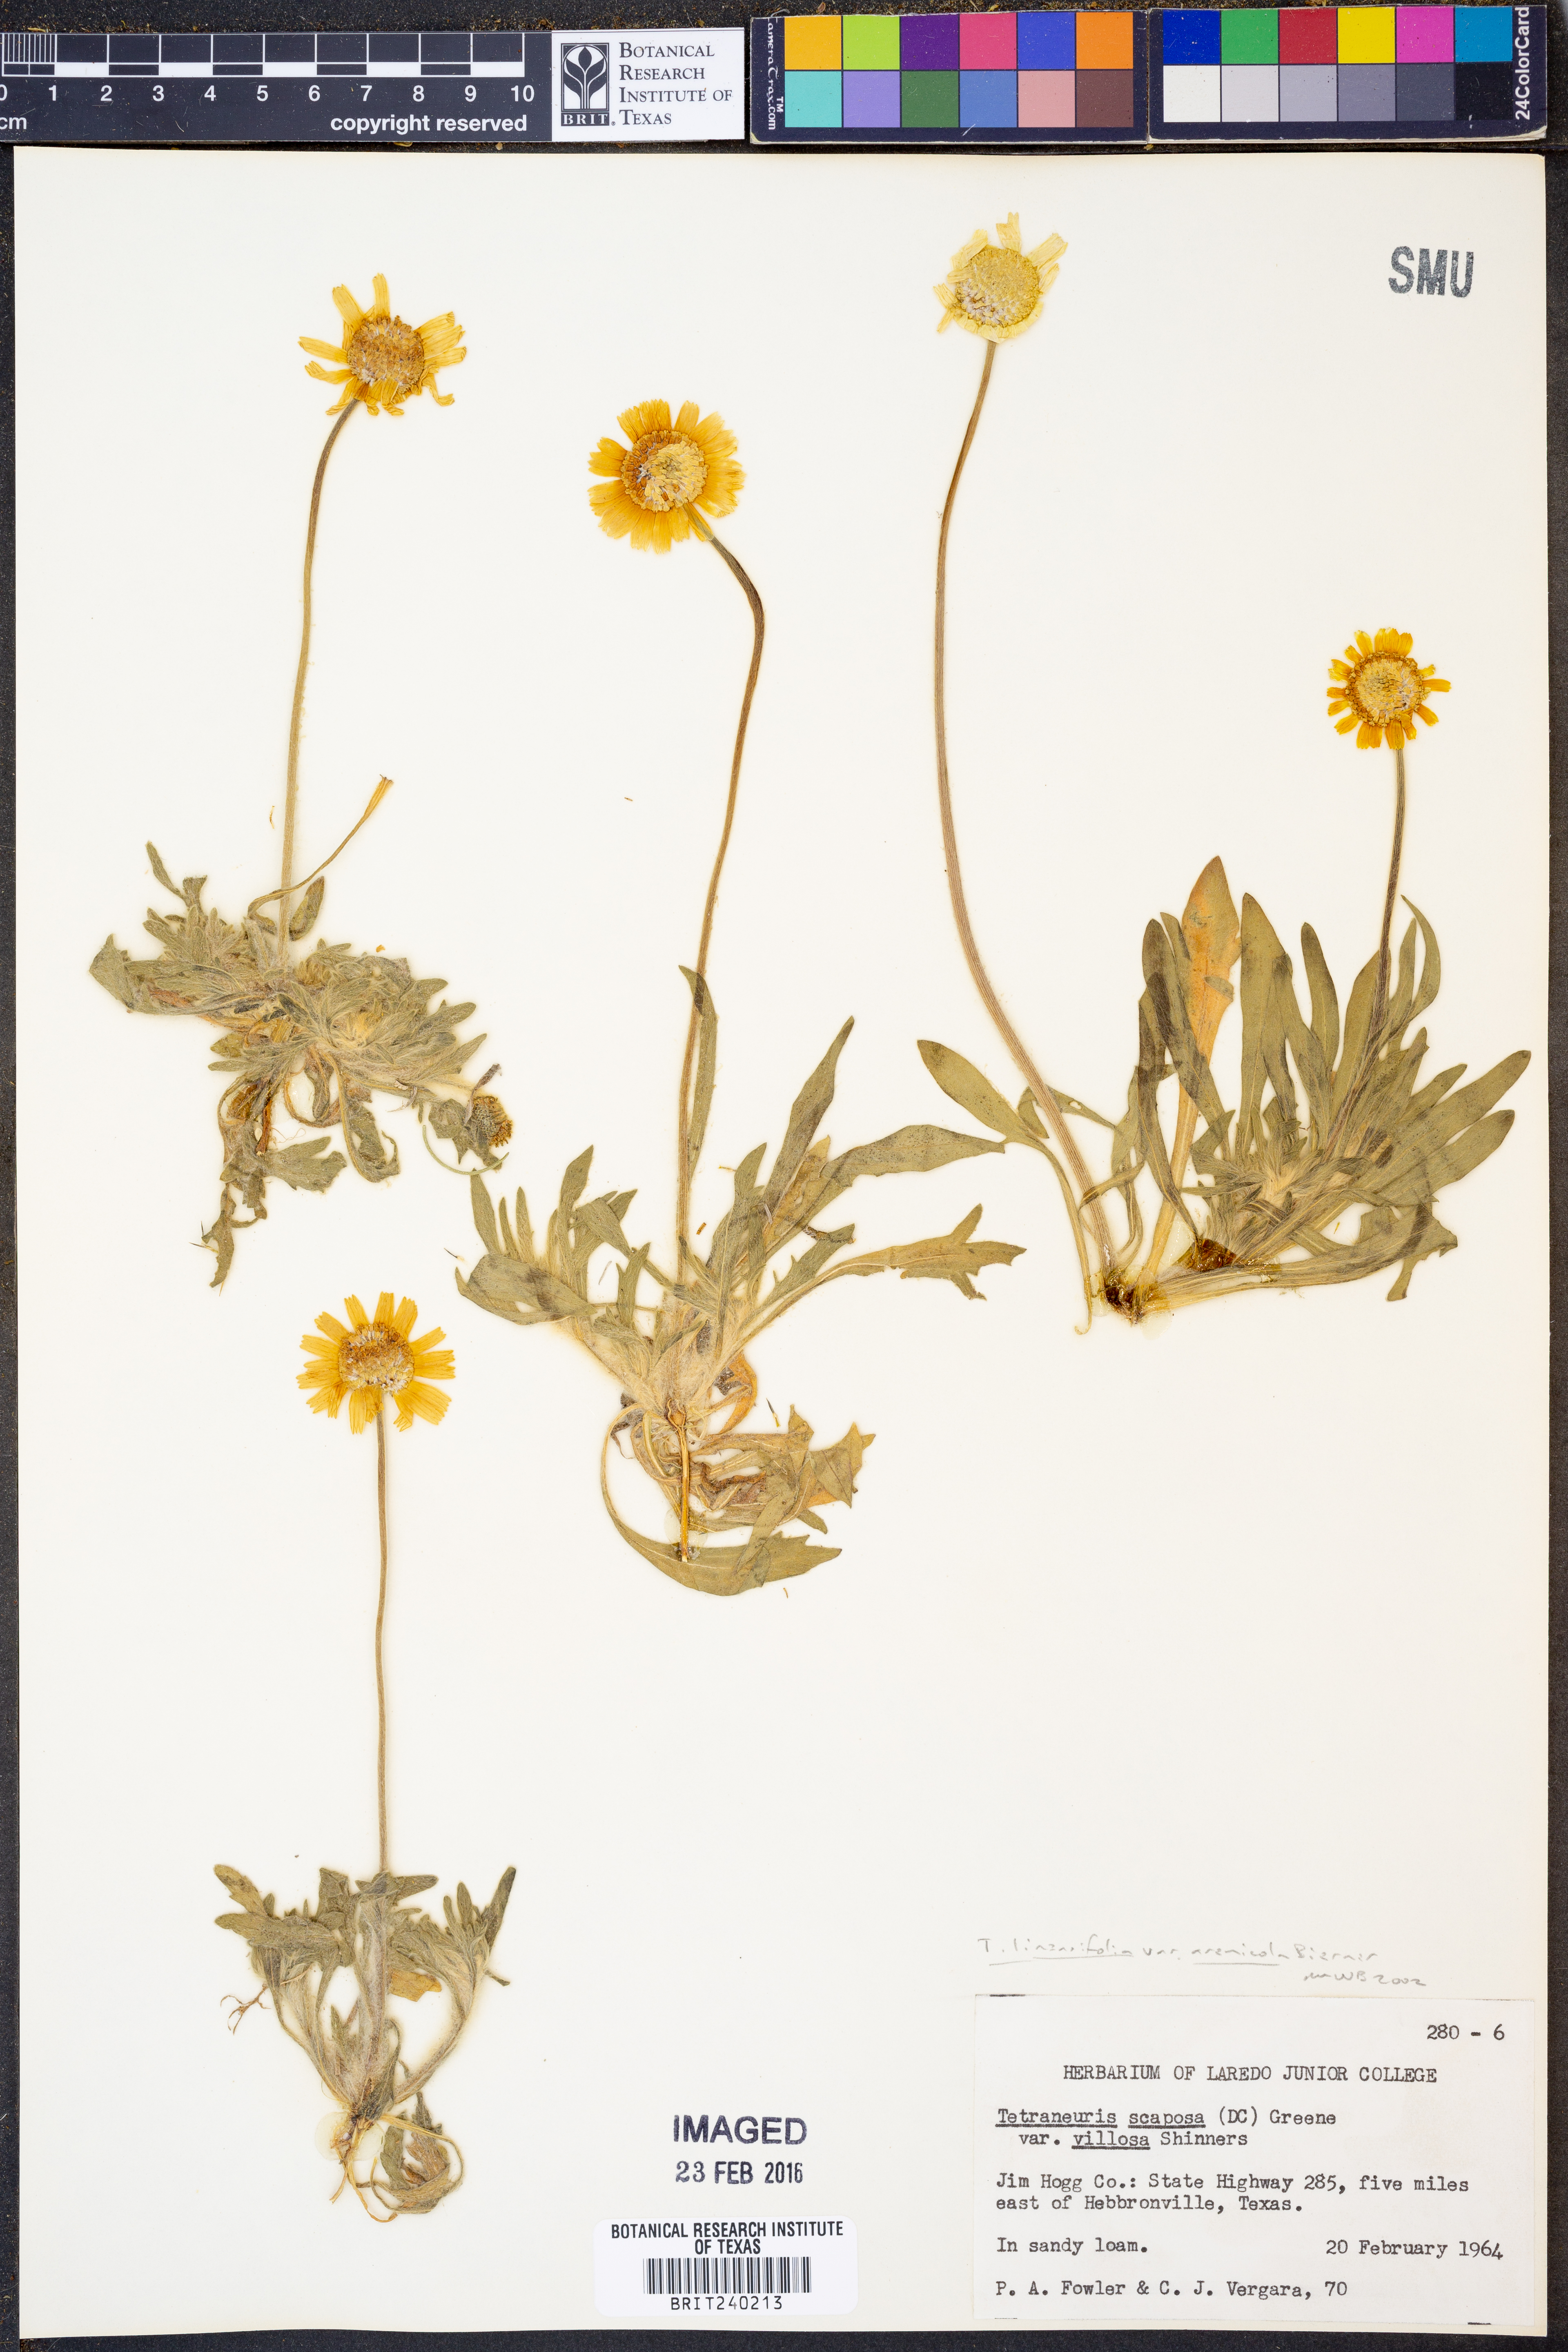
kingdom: Plantae
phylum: Tracheophyta
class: Magnoliopsida
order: Asterales
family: Asteraceae
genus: Tetraneuris
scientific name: Tetraneuris linearifolia
